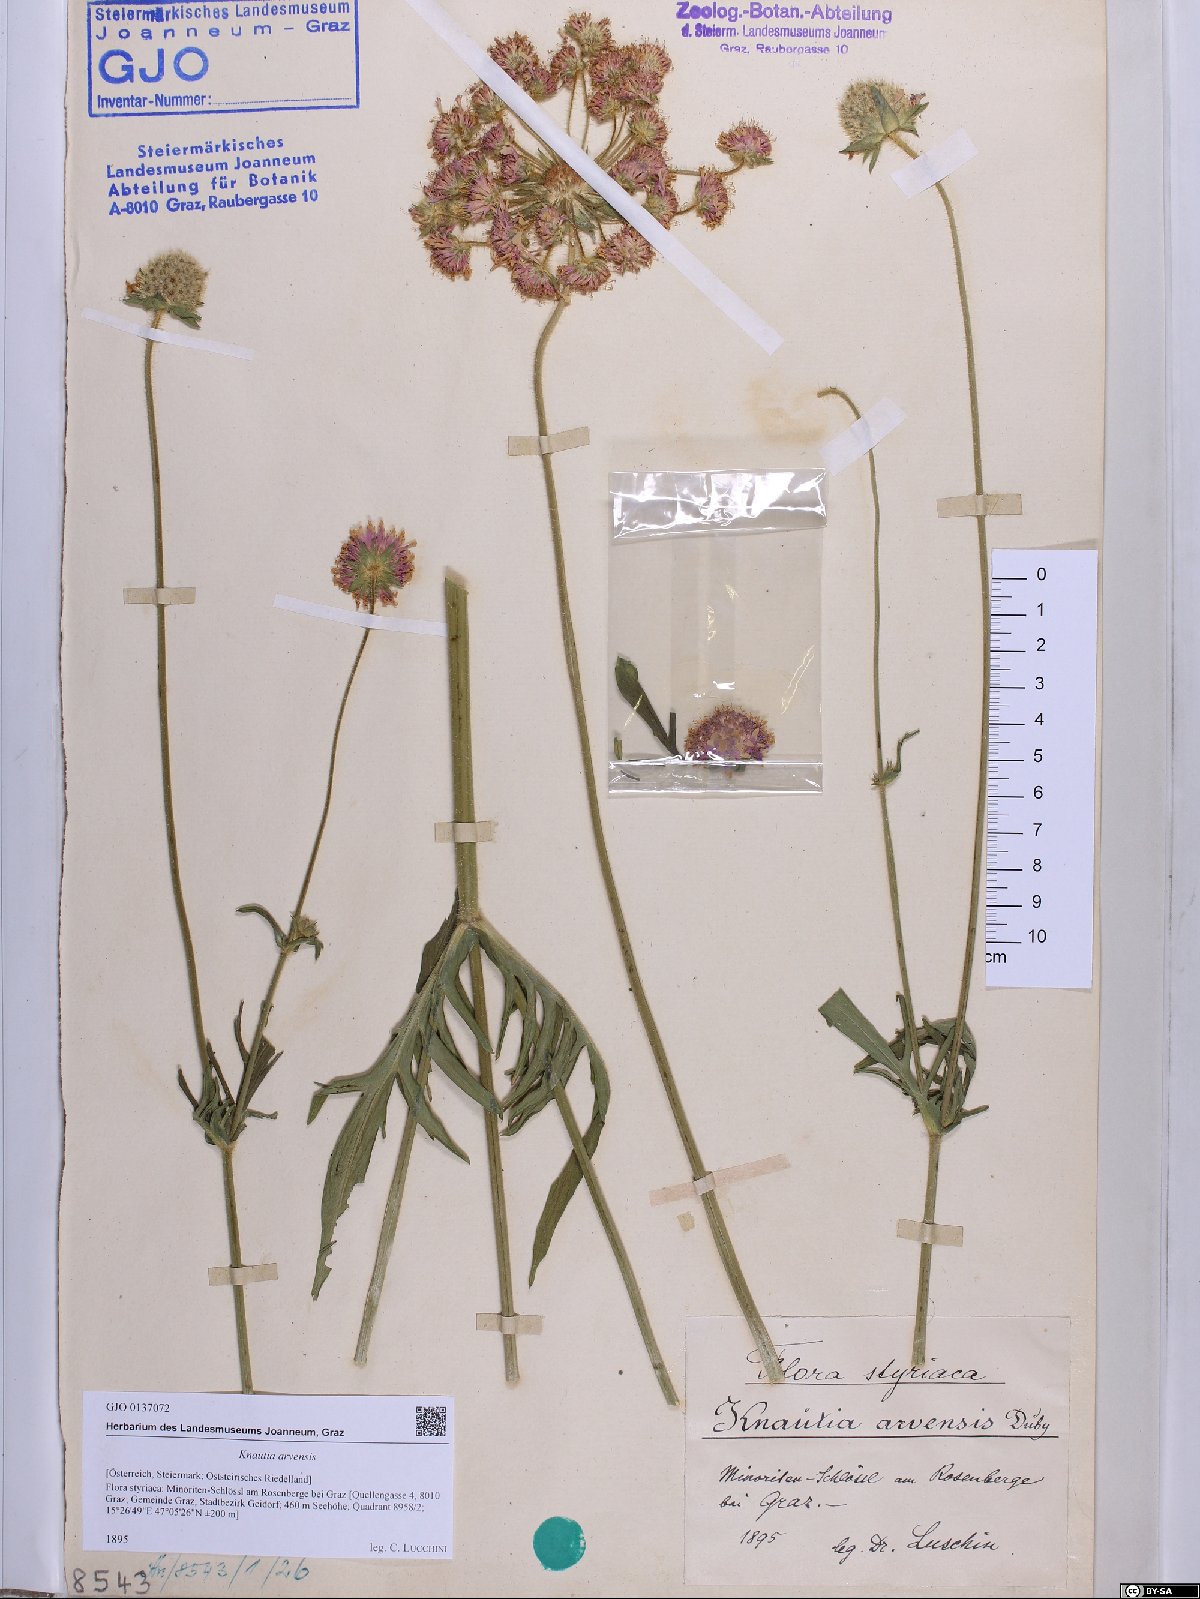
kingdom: Plantae
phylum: Tracheophyta
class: Magnoliopsida
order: Dipsacales
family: Caprifoliaceae
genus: Knautia
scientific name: Knautia arvensis
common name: Field scabiosa
